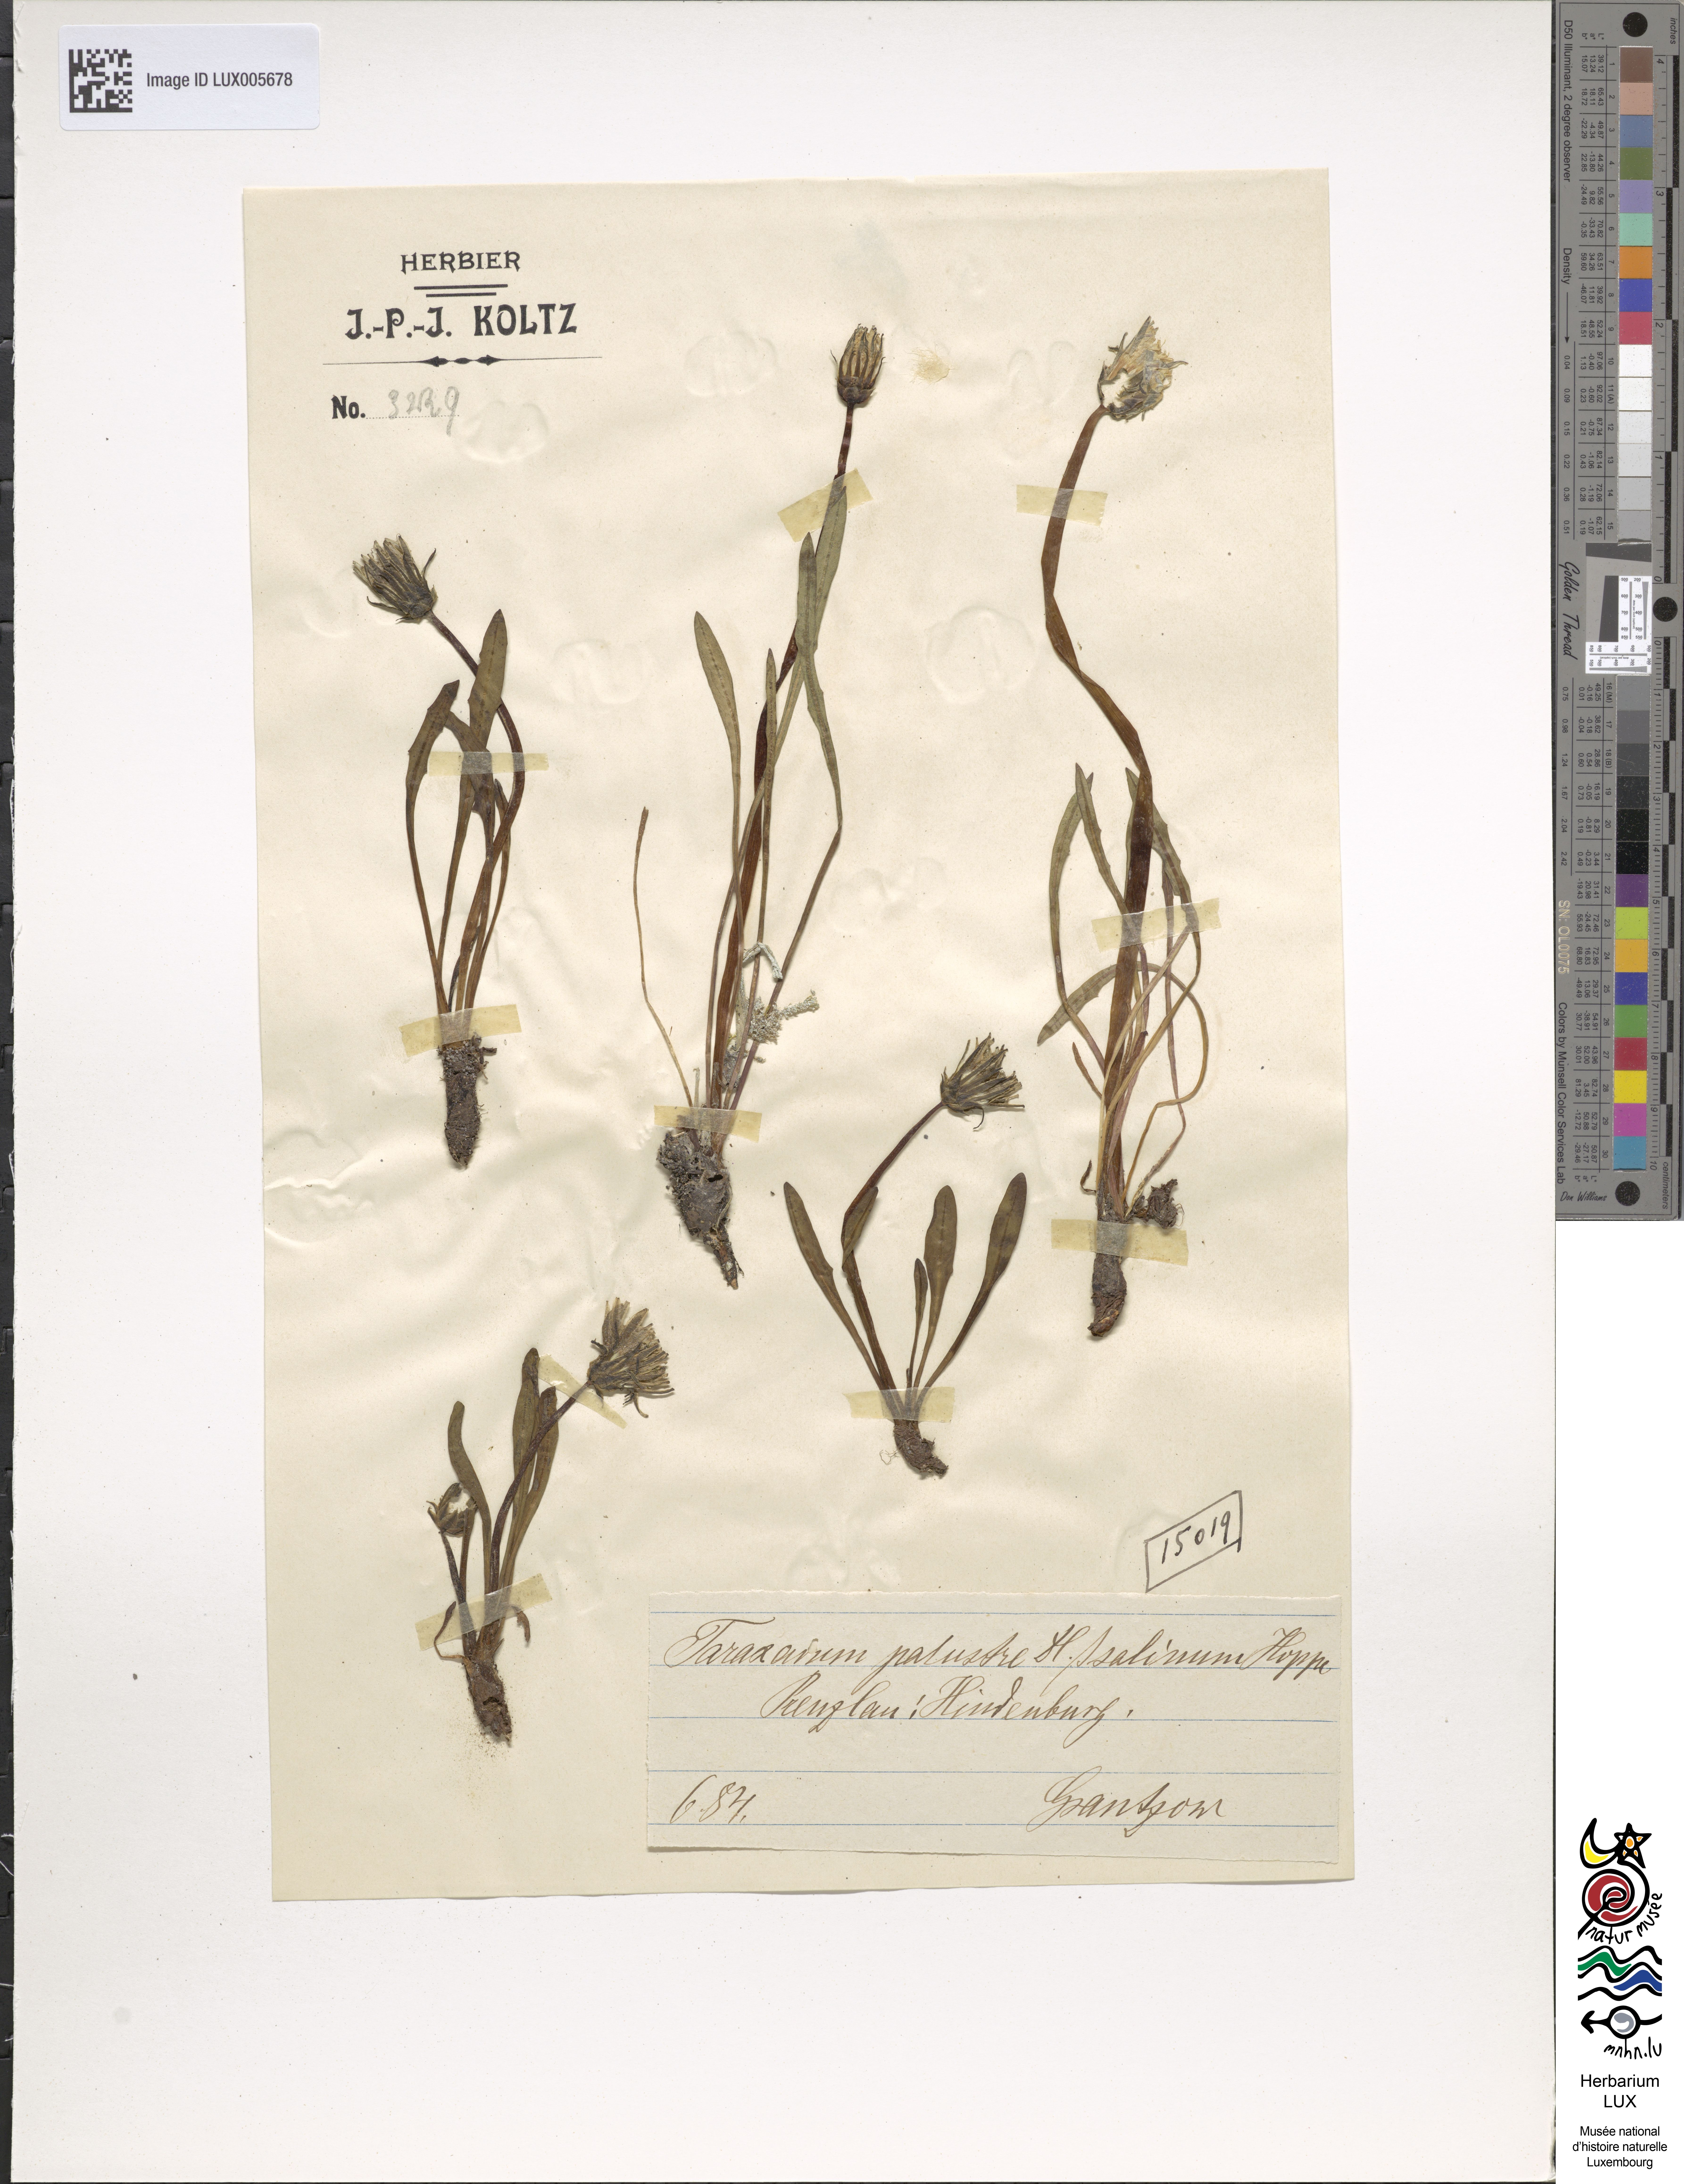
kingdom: Plantae
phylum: Tracheophyta
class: Magnoliopsida
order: Asterales
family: Asteraceae
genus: Taraxacum
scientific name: Taraxacum palustre
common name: Marsh dandelion
